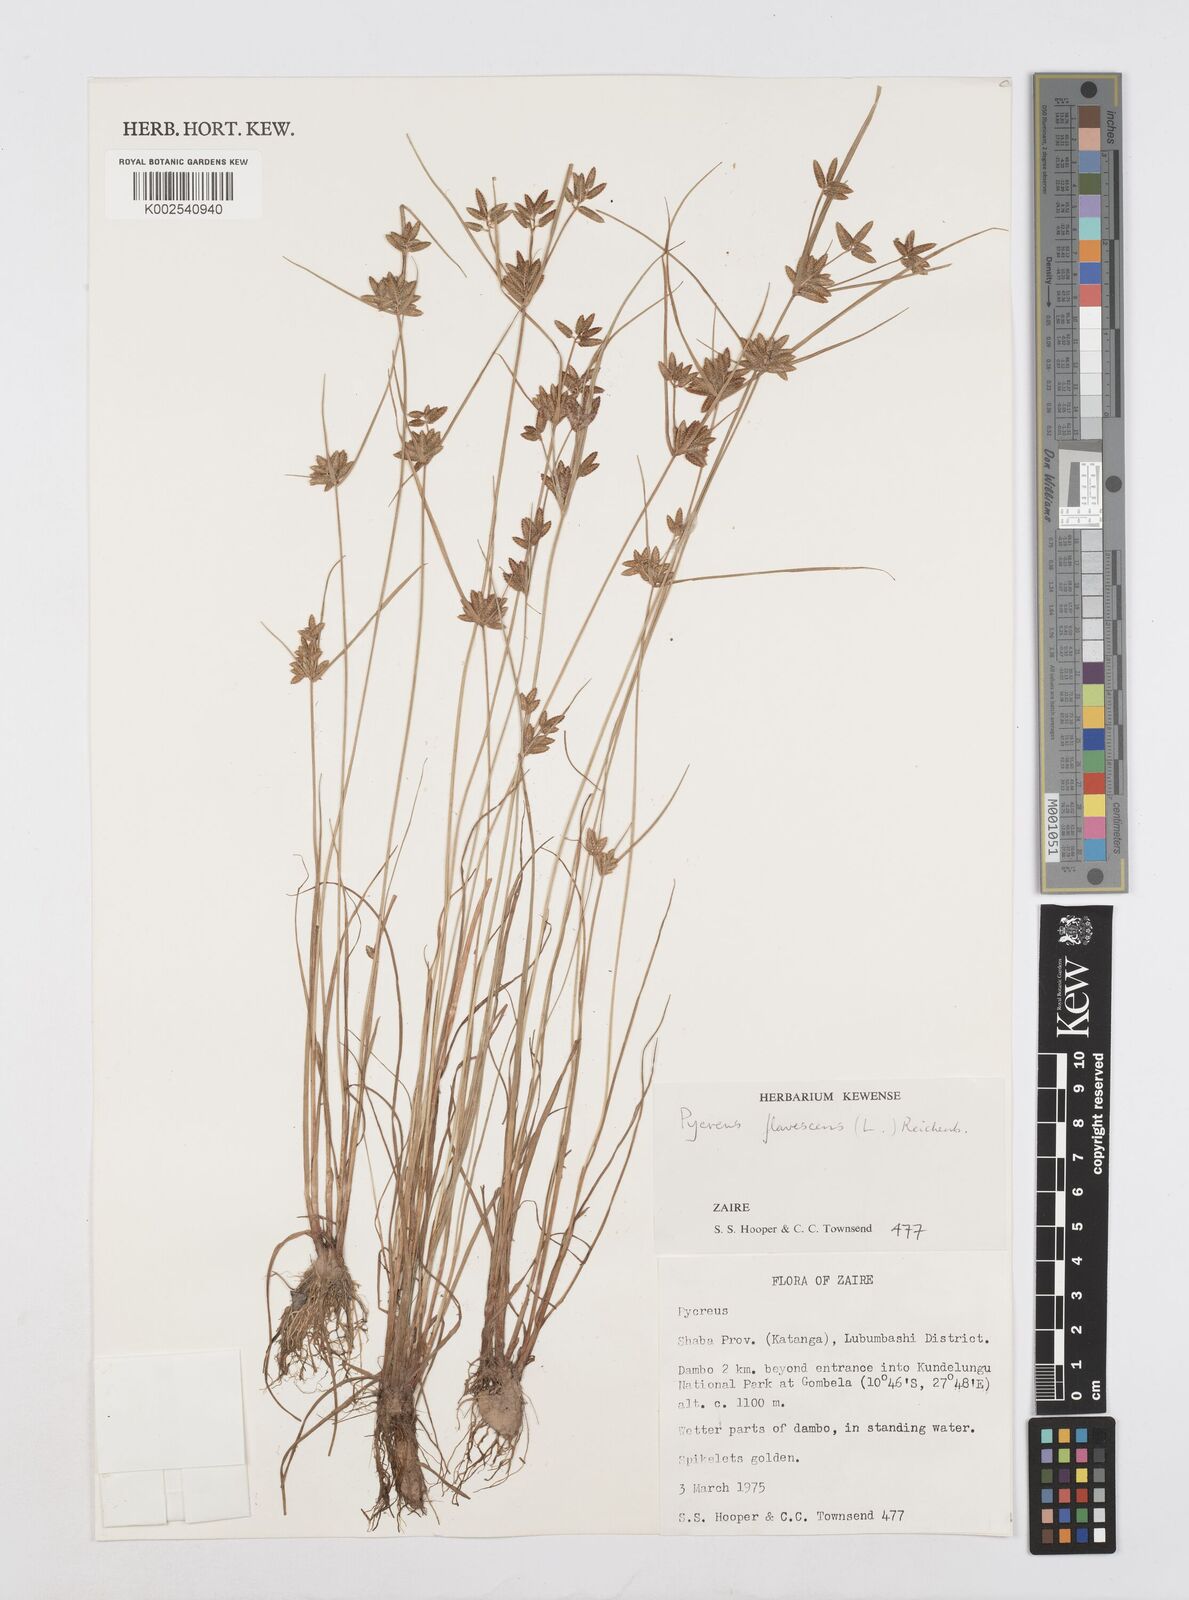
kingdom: Plantae
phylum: Tracheophyta
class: Liliopsida
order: Poales
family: Cyperaceae
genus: Cyperus
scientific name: Cyperus flavescens
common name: Yellow galingale
